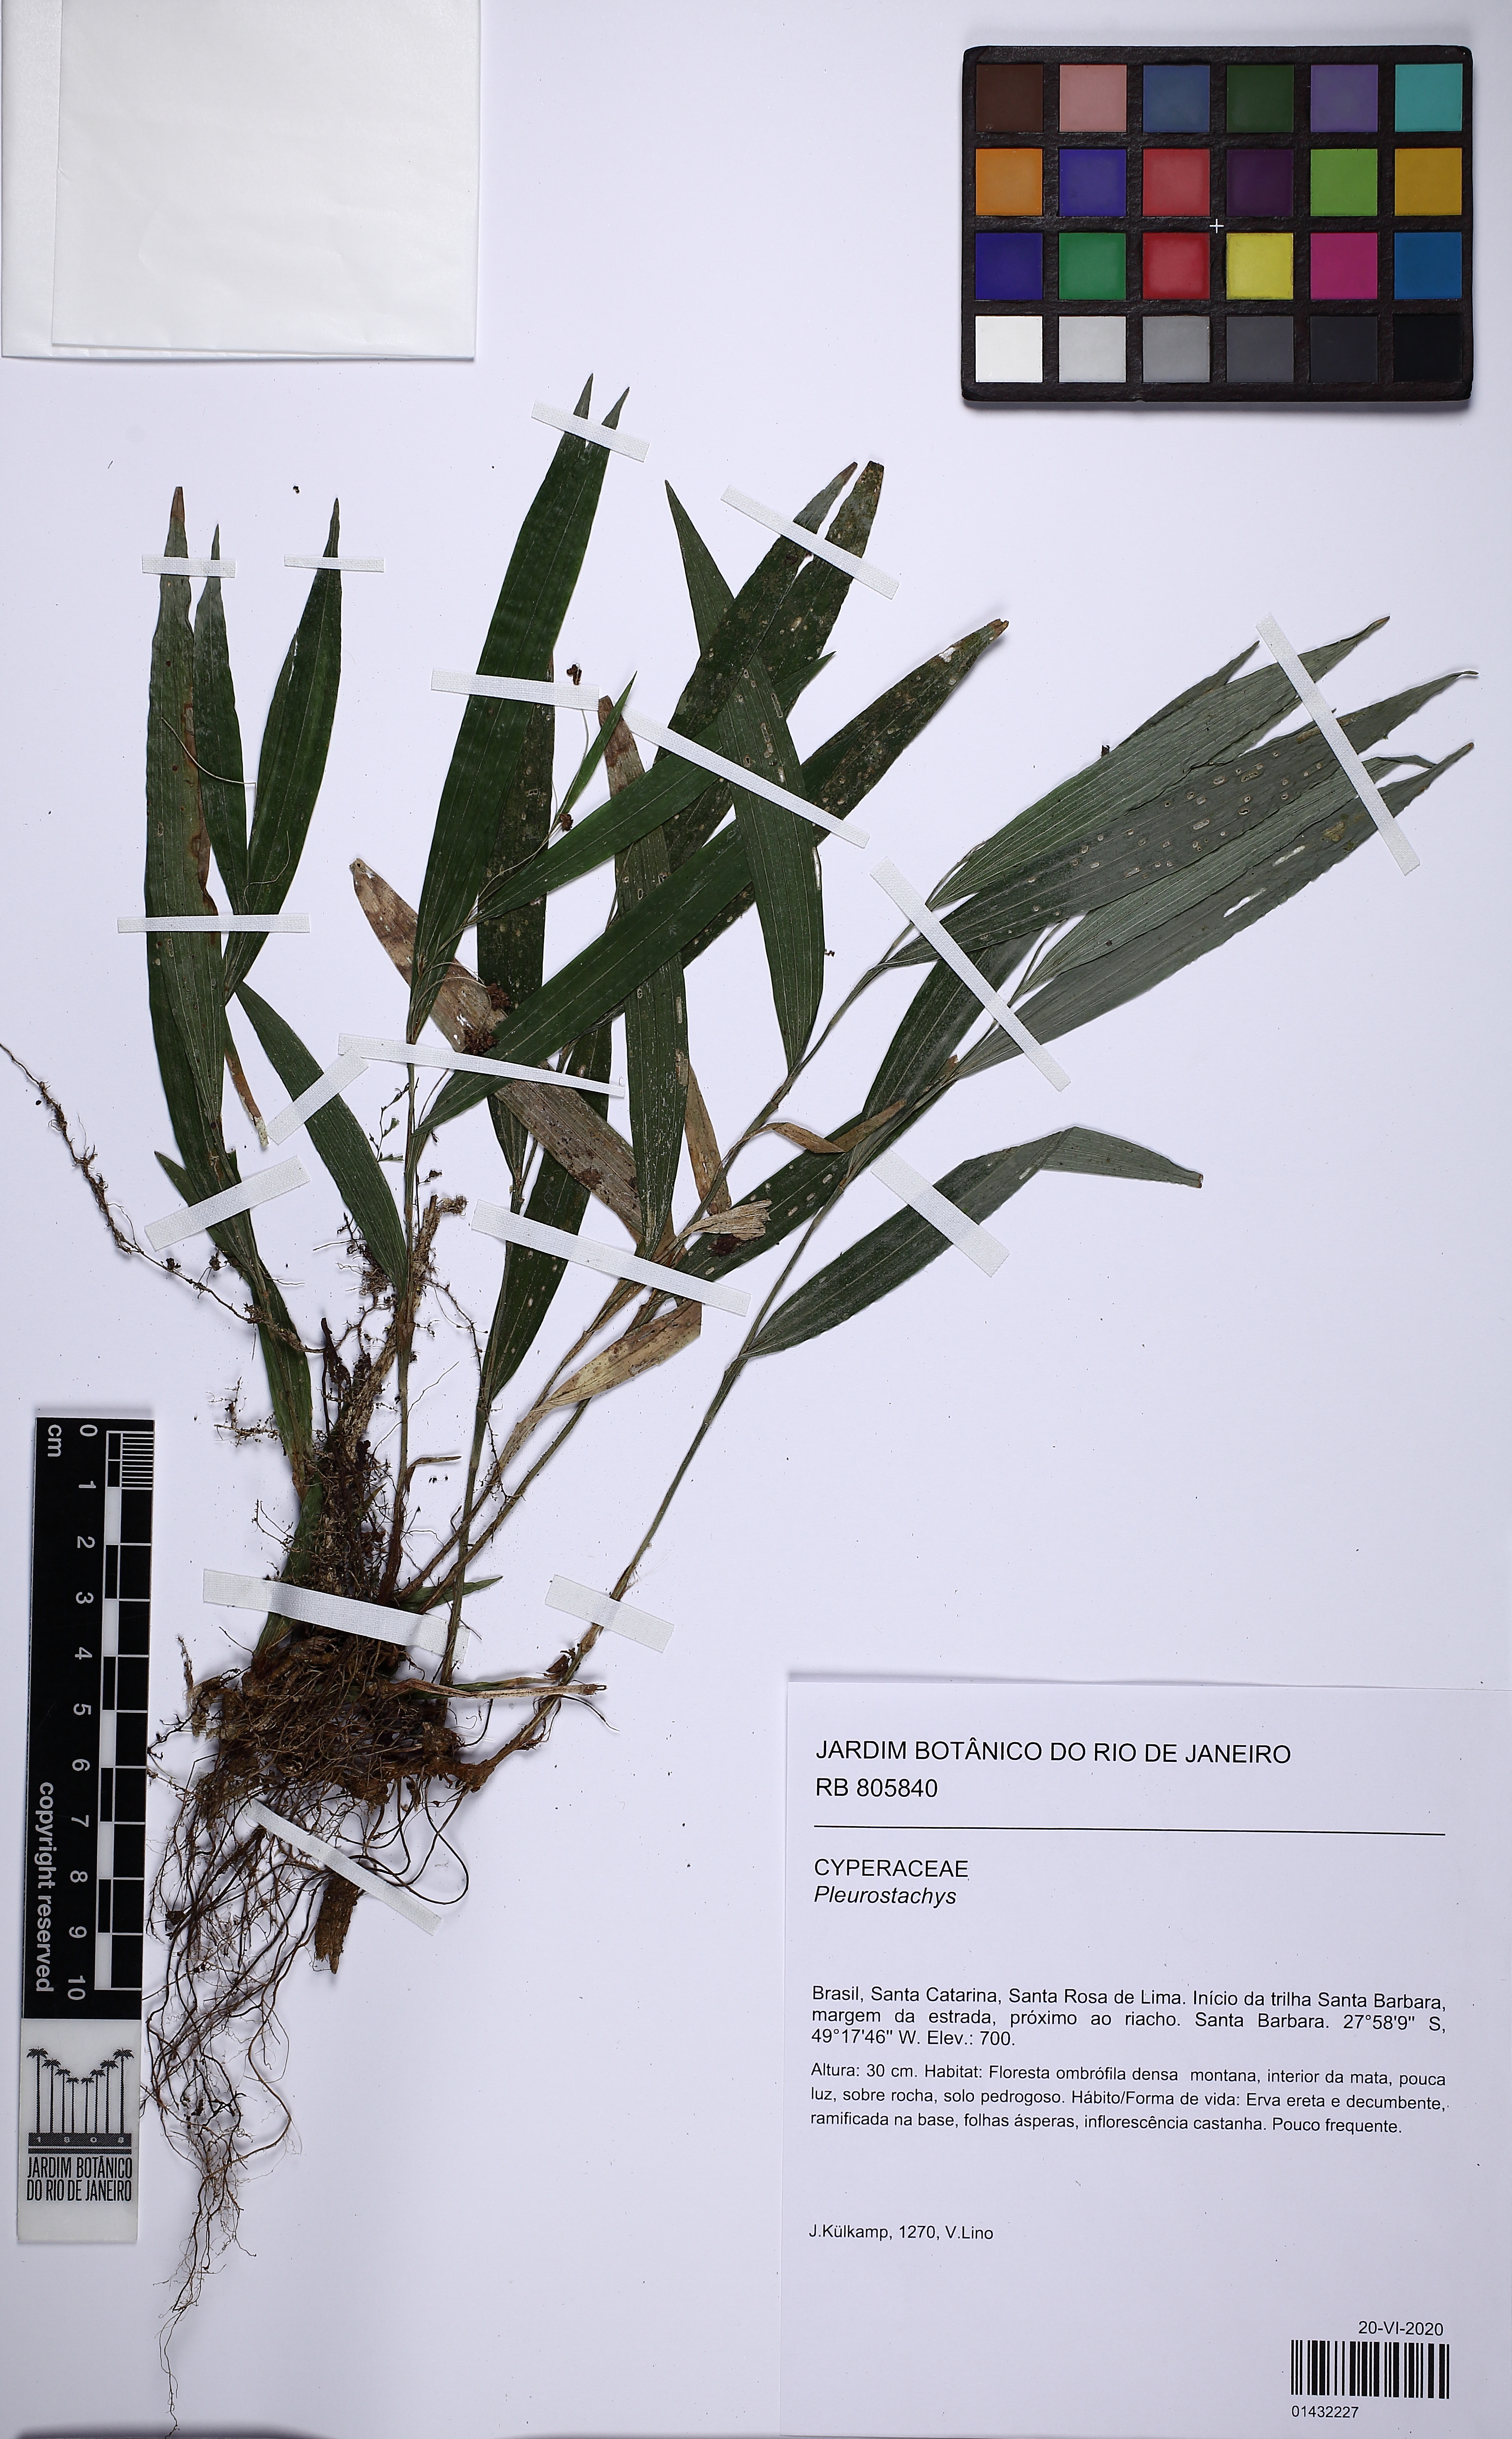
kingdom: Plantae
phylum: Tracheophyta
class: Liliopsida
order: Poales
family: Cyperaceae
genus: Rhynchospora
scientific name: Rhynchospora
